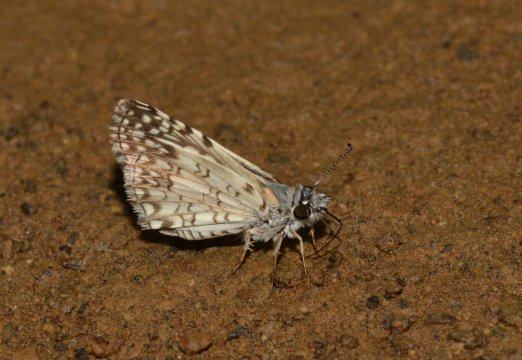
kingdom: Animalia
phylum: Arthropoda
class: Insecta
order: Lepidoptera
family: Hesperiidae
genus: Pyrgus
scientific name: Pyrgus oileus
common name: Tropical Checkered-Skipper
